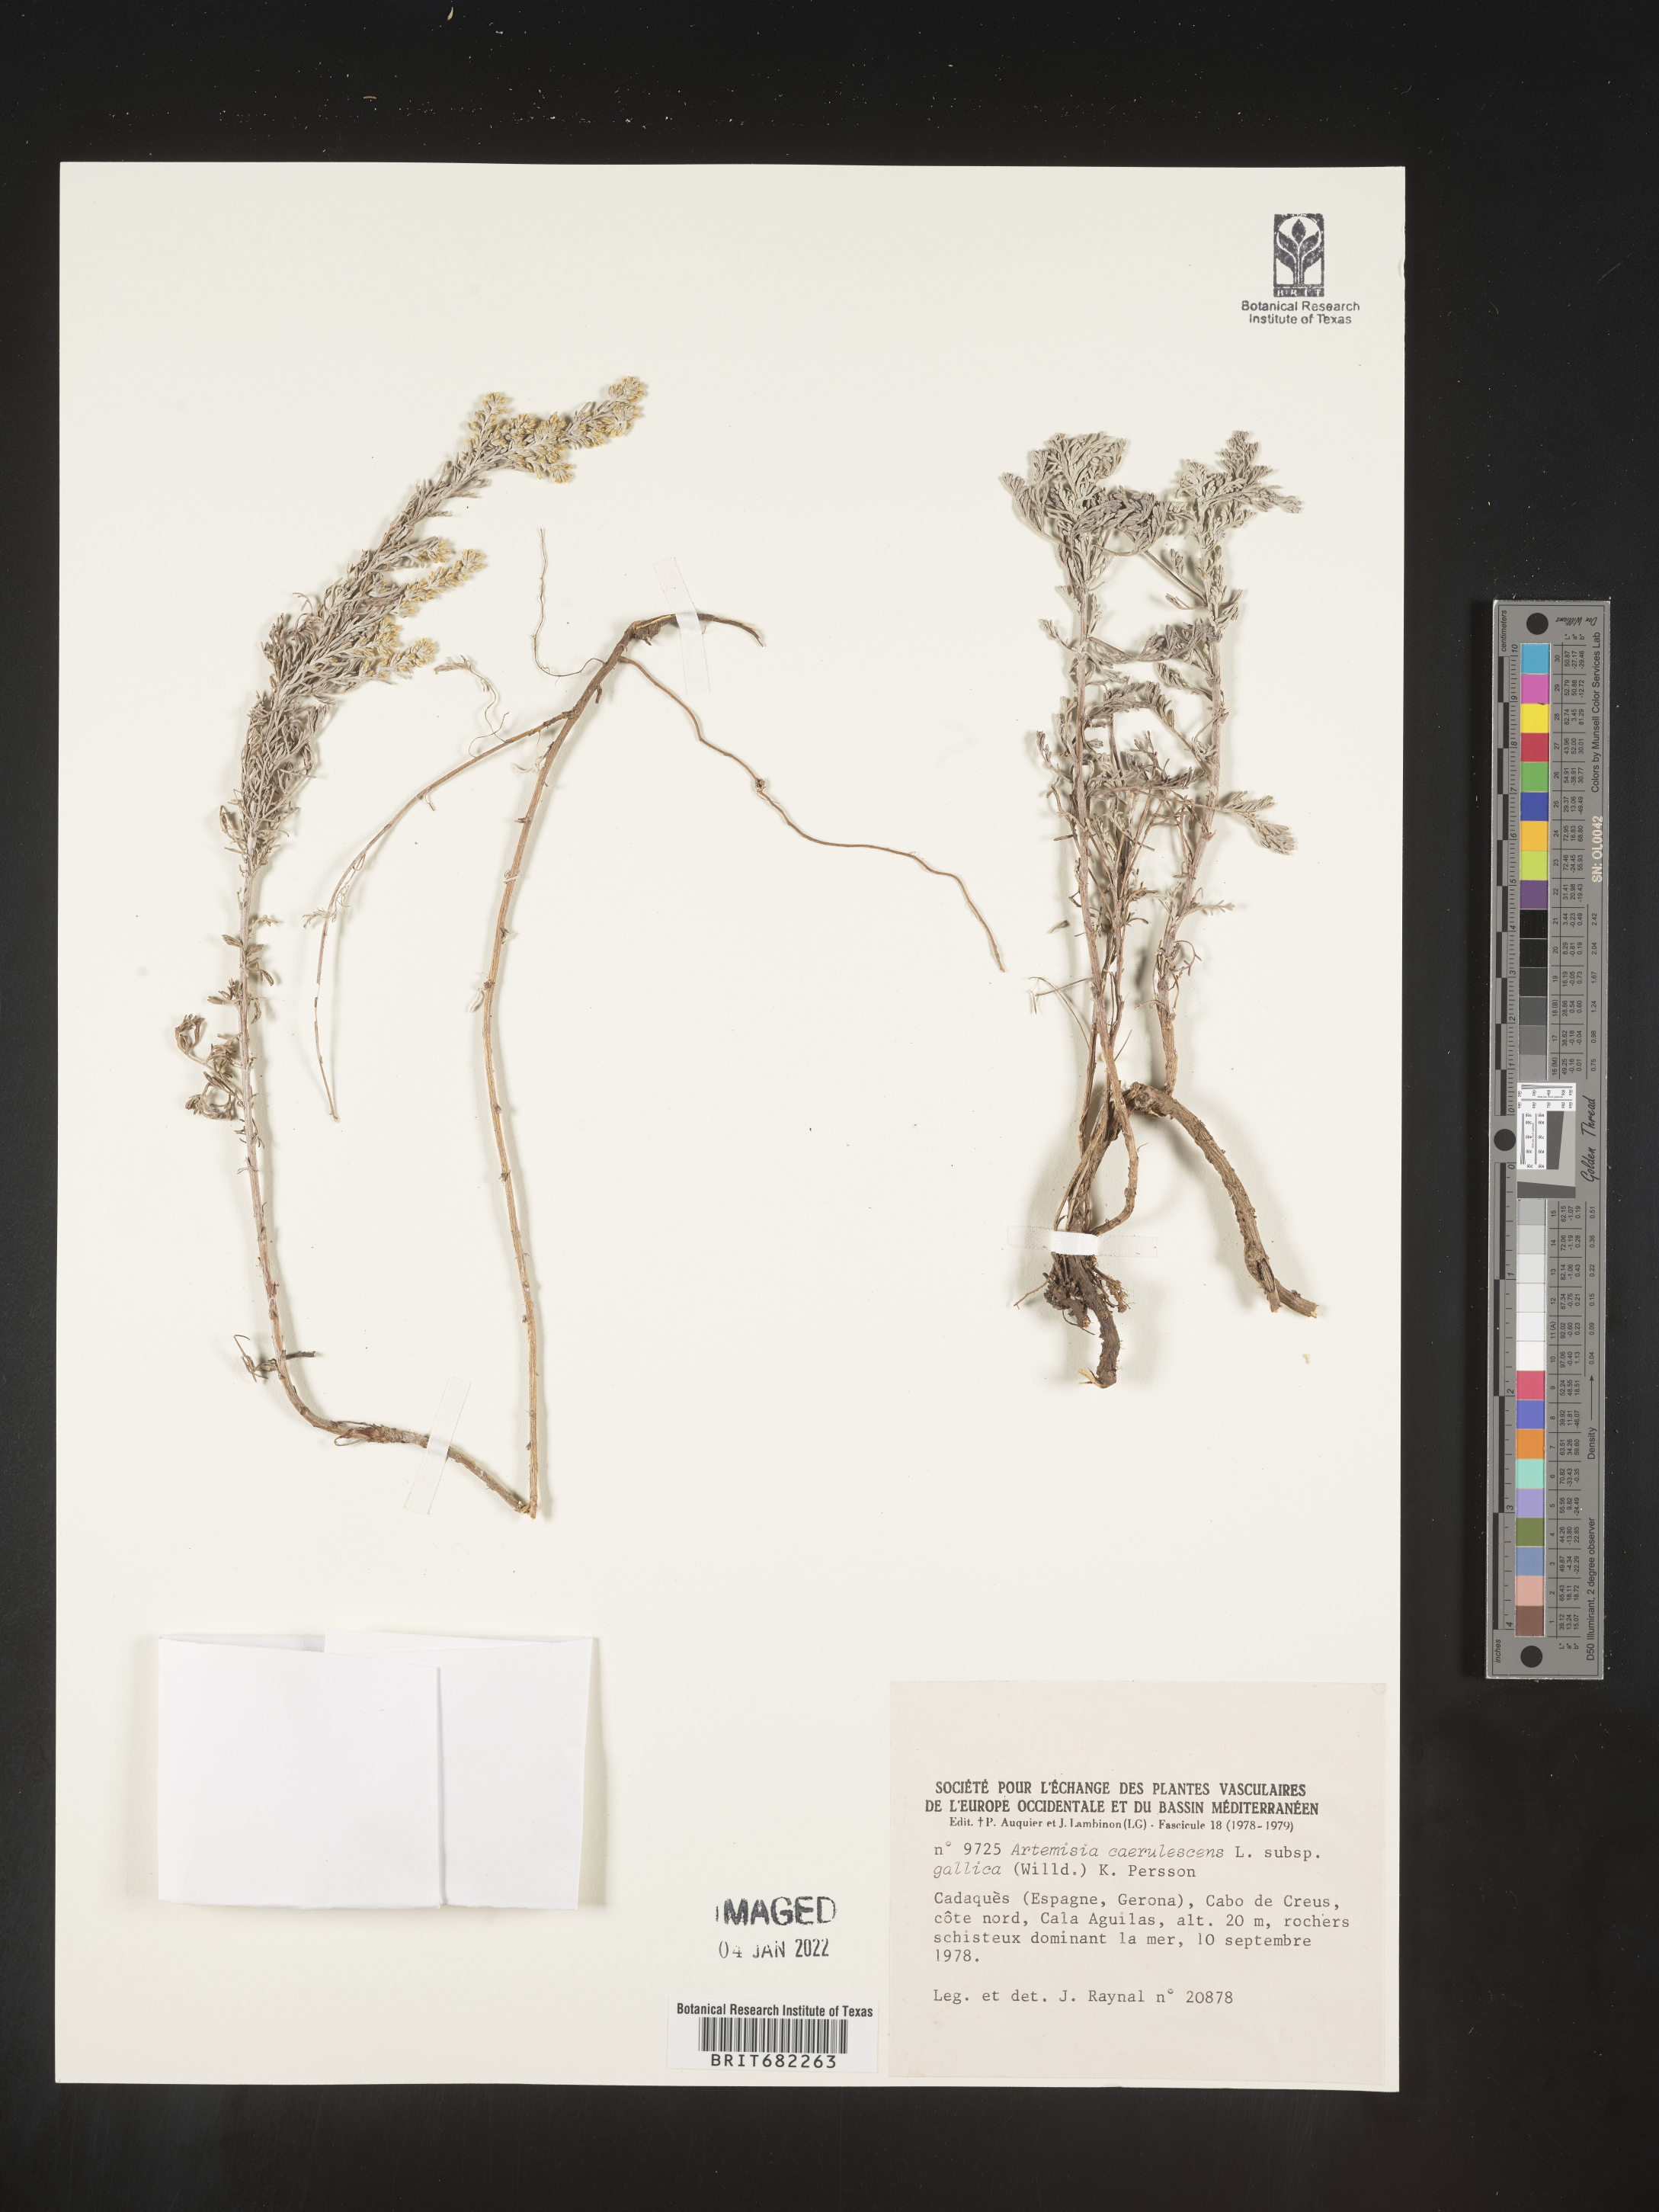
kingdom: Plantae
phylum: Tracheophyta
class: Magnoliopsida
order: Asterales
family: Asteraceae
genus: Artemisia
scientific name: Artemisia
